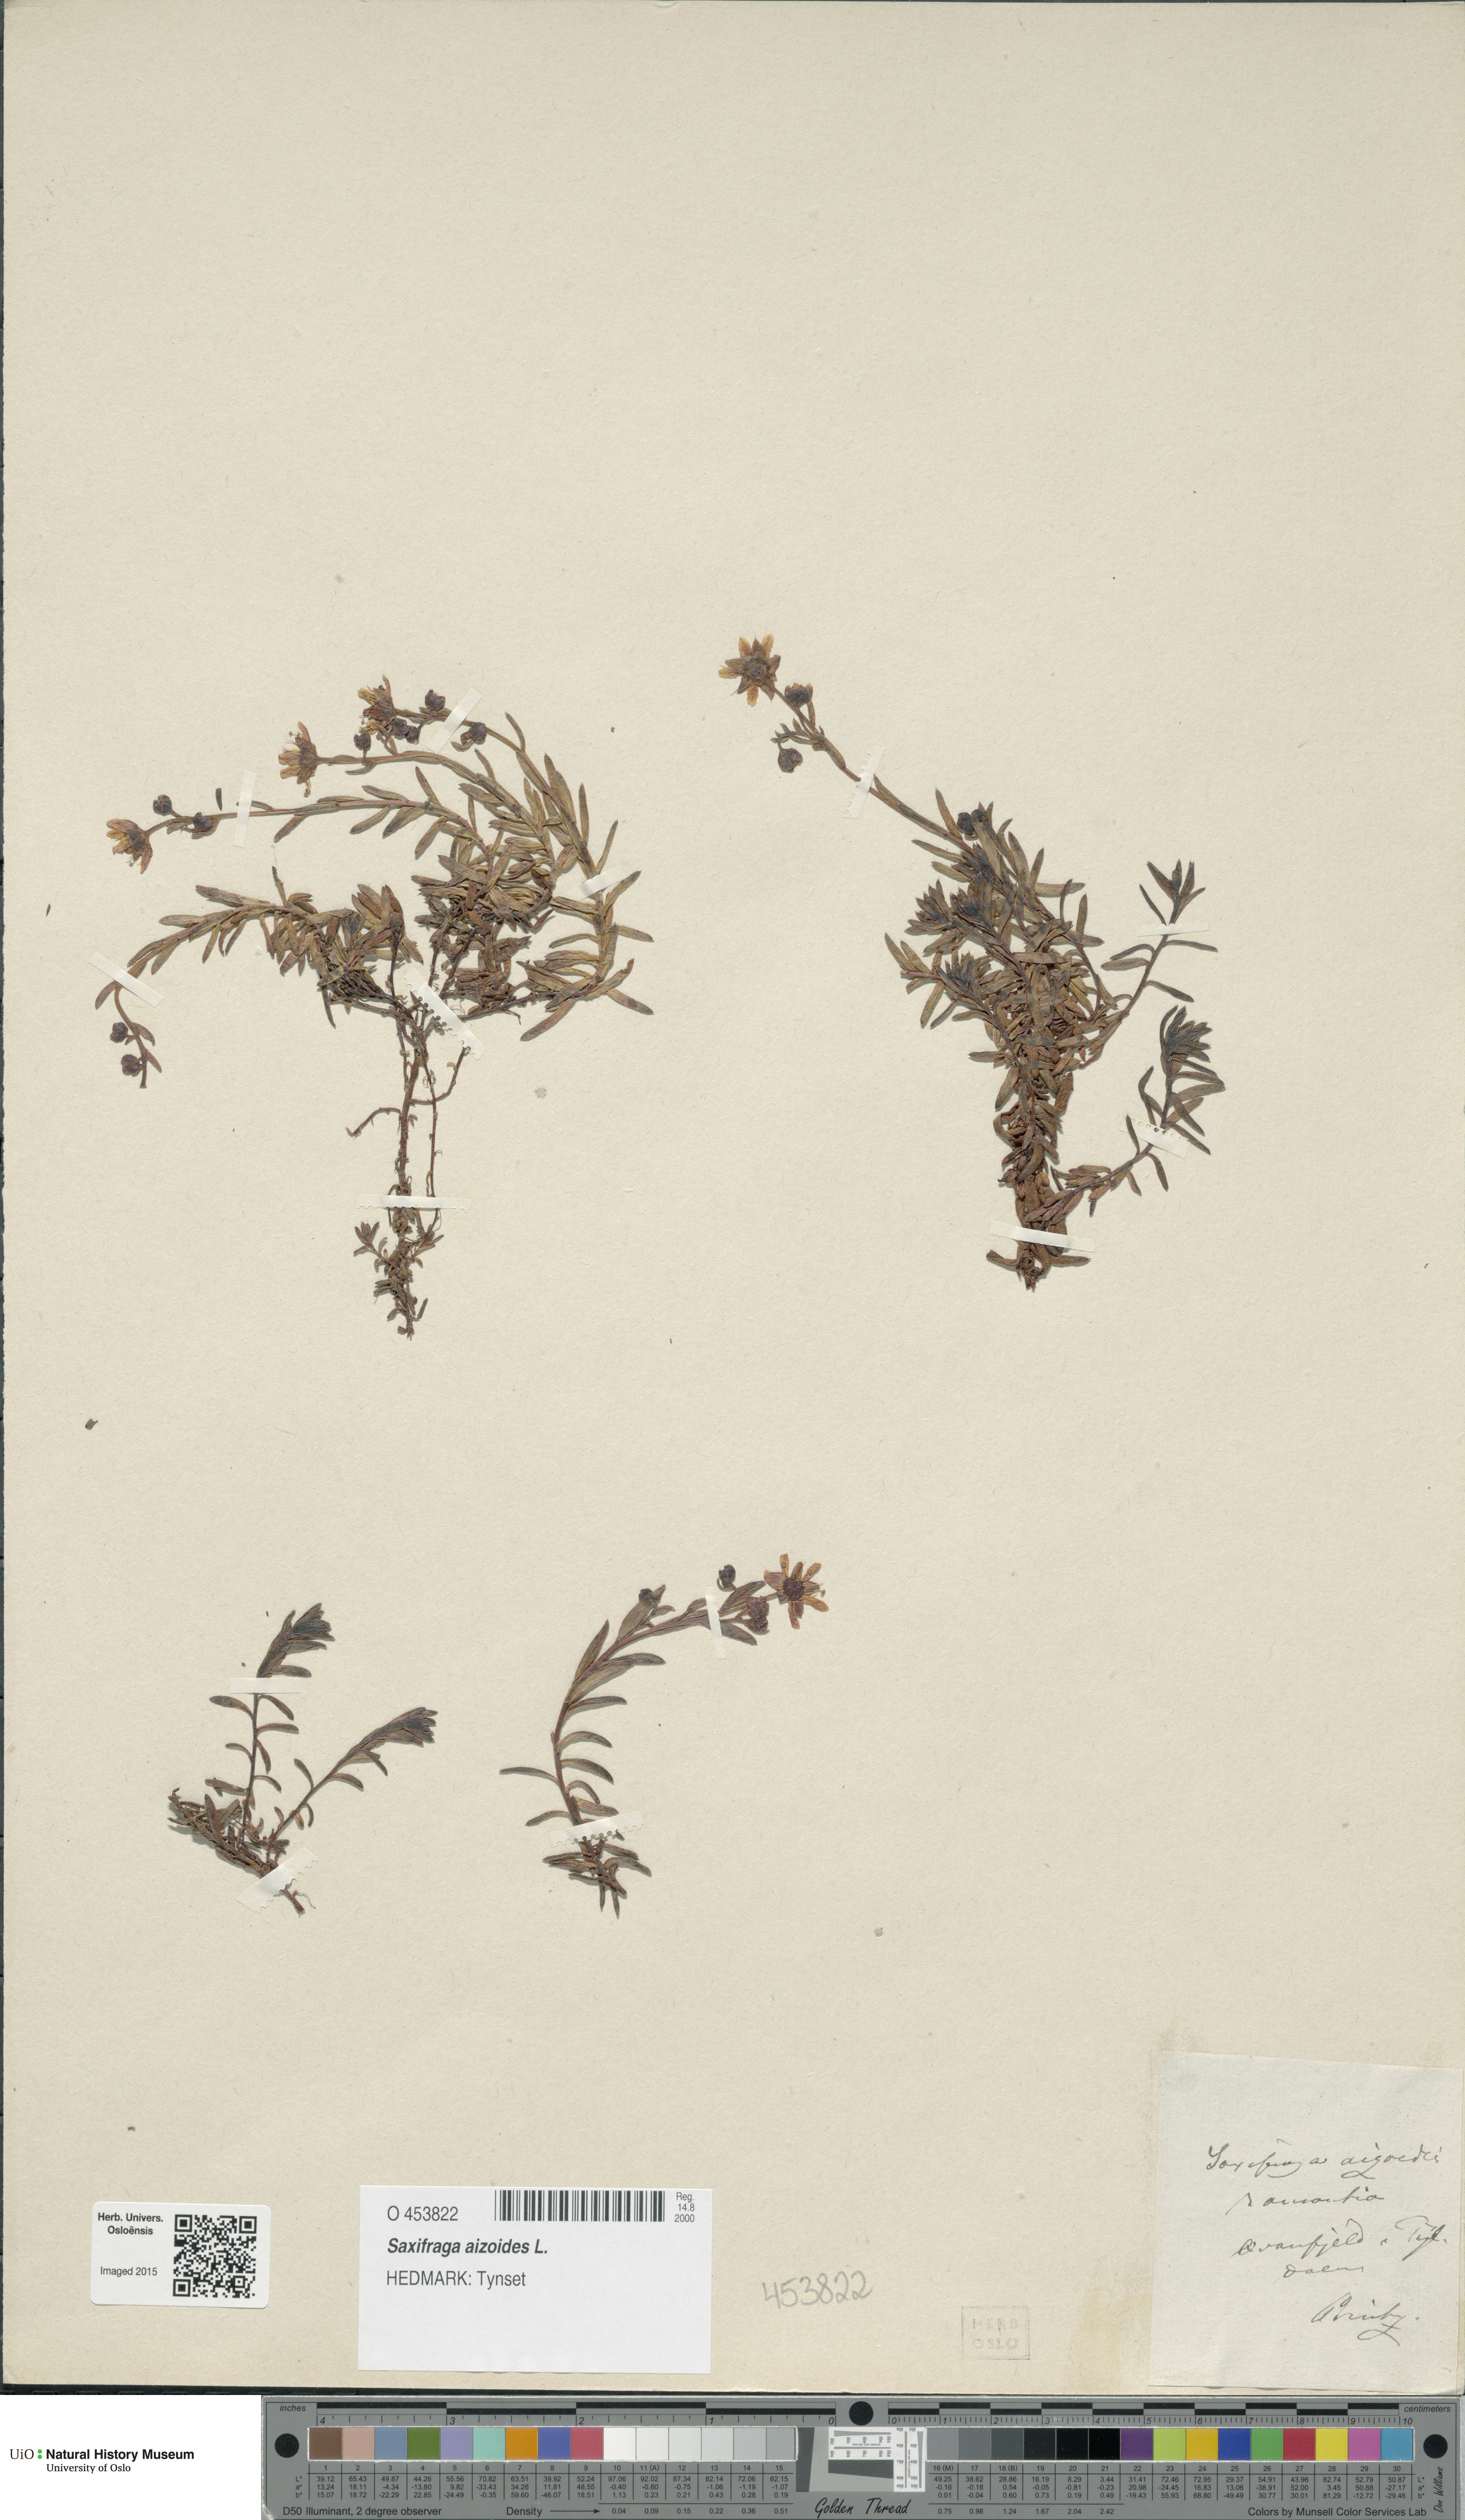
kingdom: Plantae
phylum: Tracheophyta
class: Magnoliopsida
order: Saxifragales
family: Saxifragaceae
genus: Saxifraga
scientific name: Saxifraga aizoides
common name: Yellow mountain saxifrage
